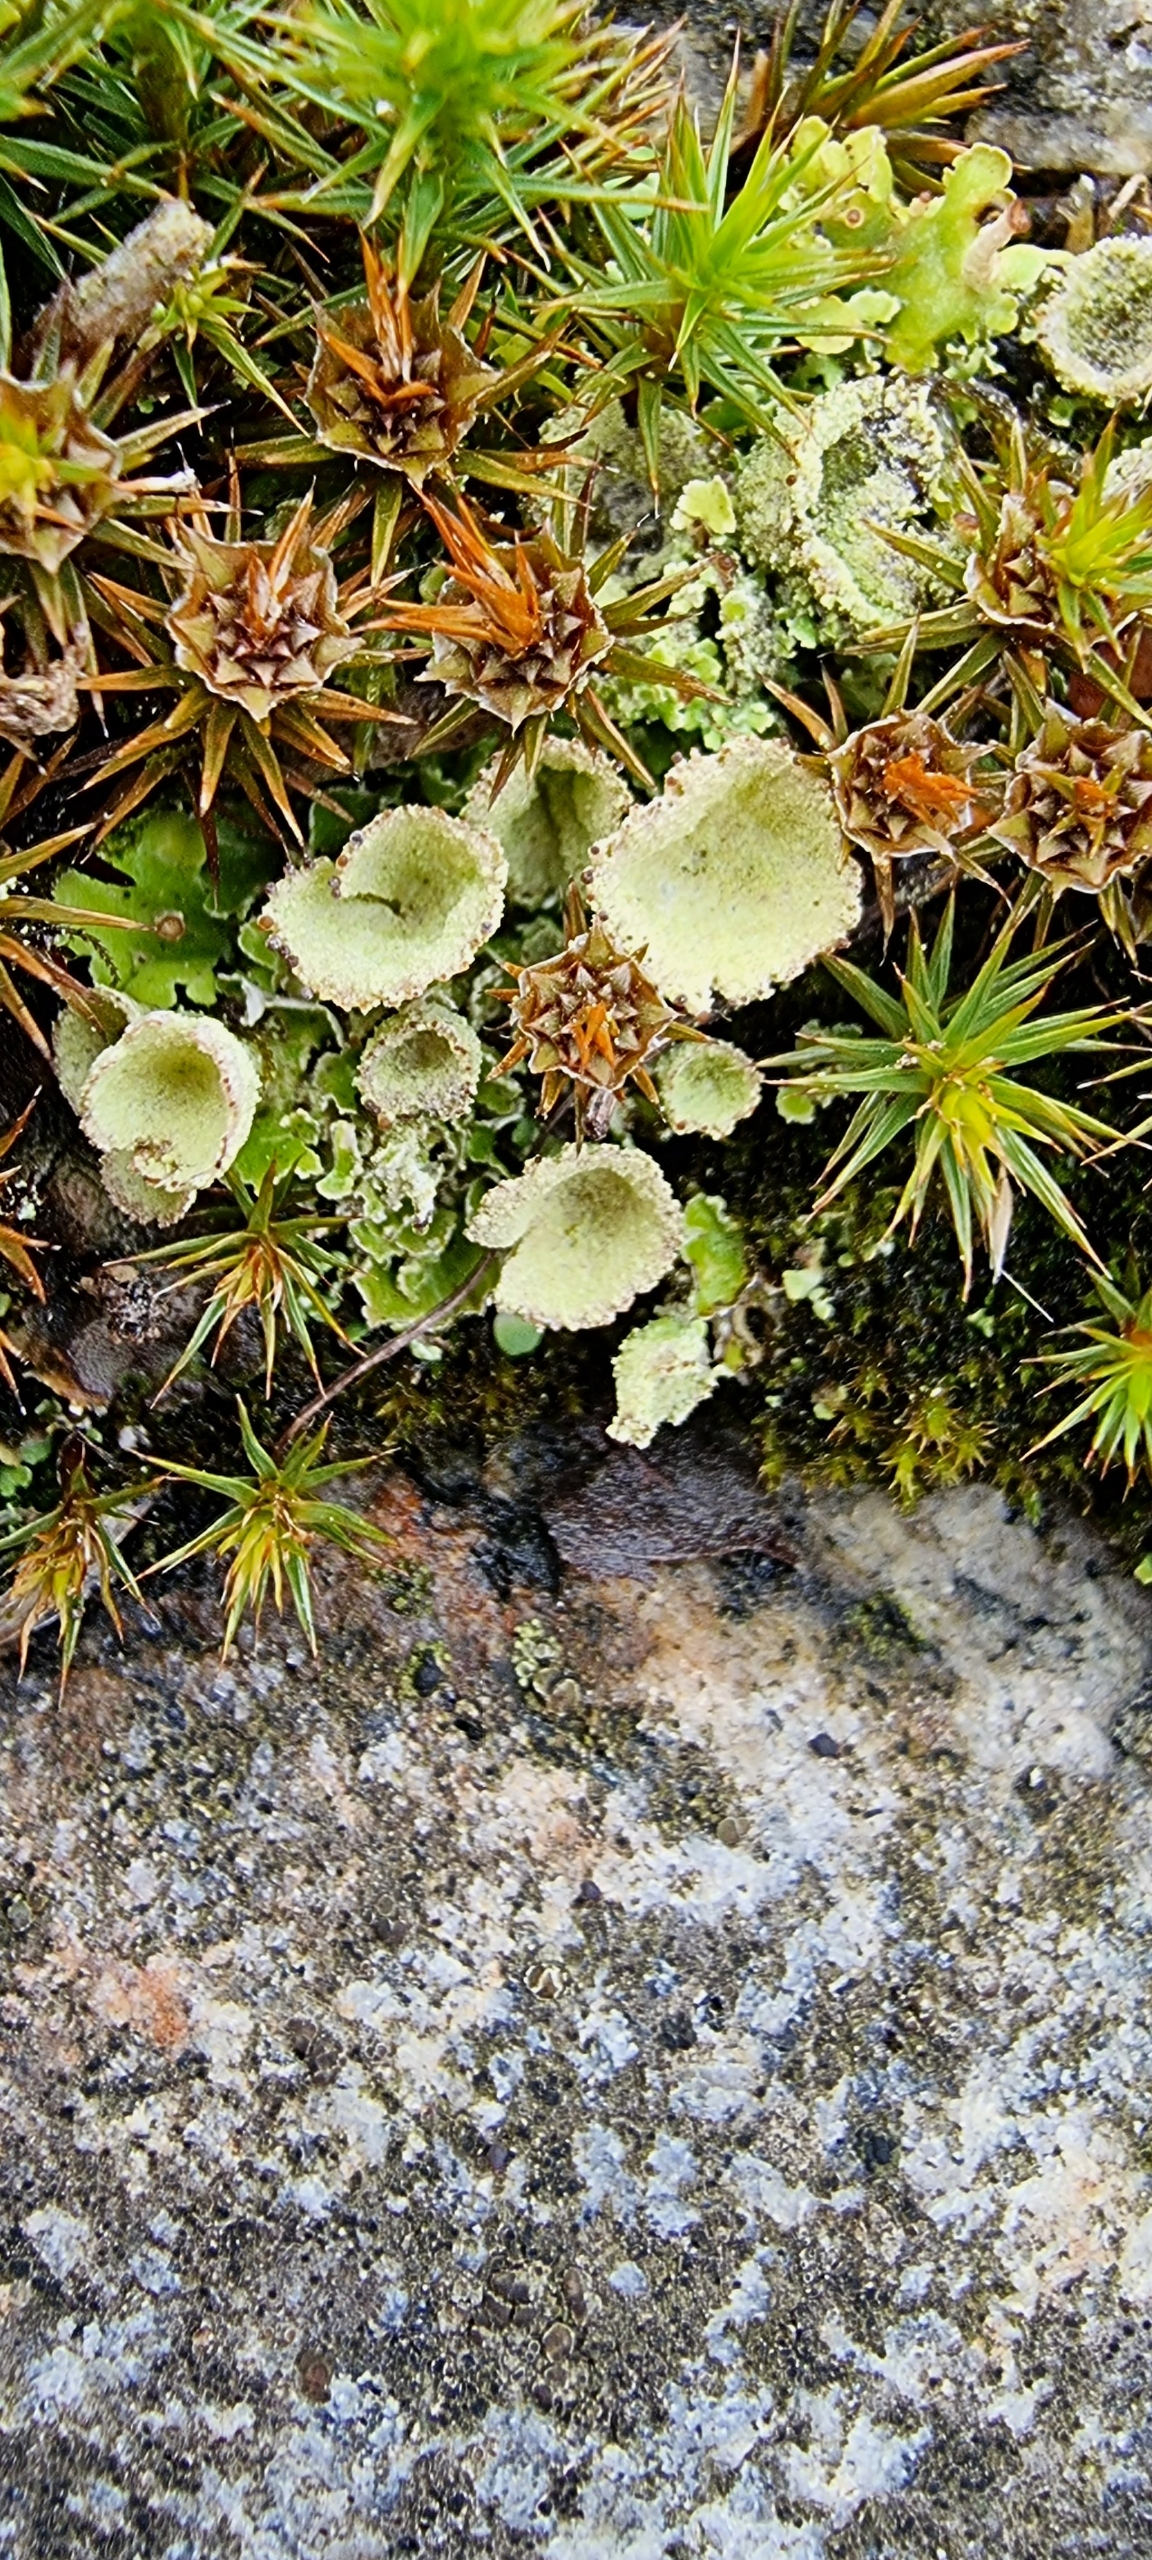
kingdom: Fungi
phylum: Ascomycota
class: Lecanoromycetes
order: Lecanorales
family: Cladoniaceae
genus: Cladonia
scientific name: Cladonia
